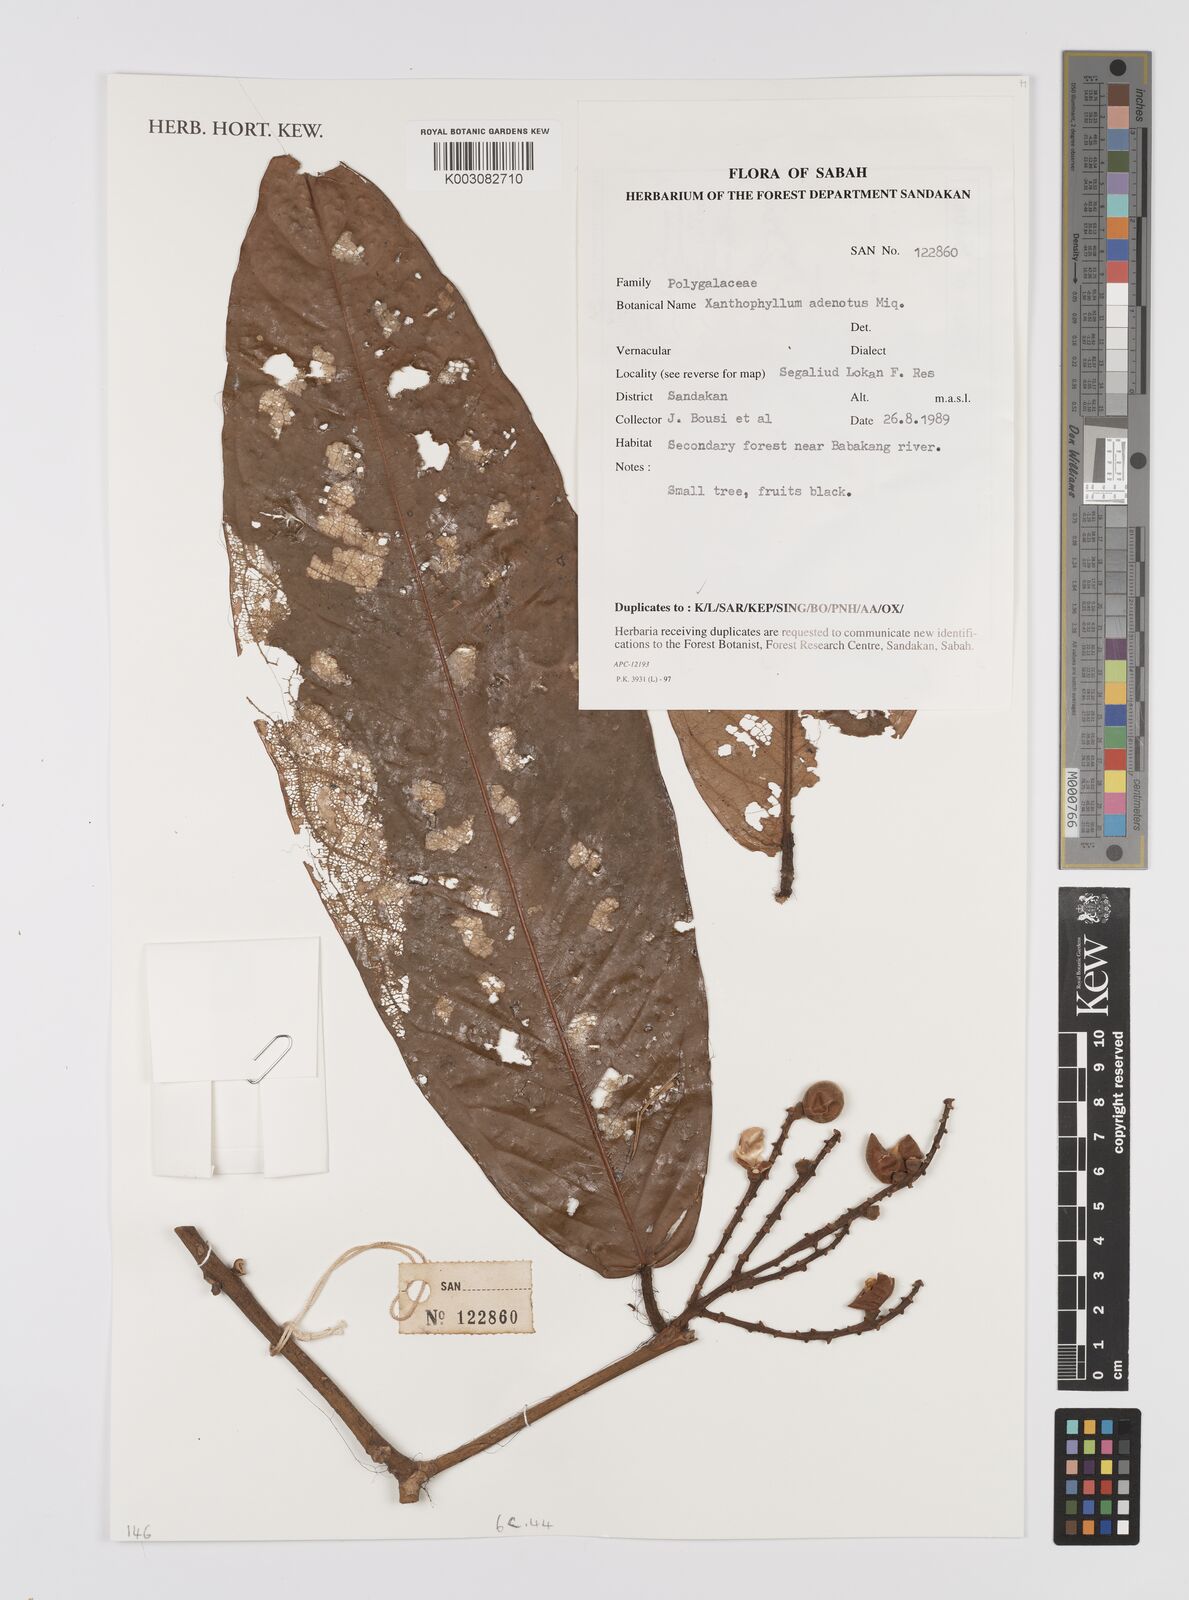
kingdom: Plantae
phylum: Tracheophyta
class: Magnoliopsida
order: Fabales
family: Polygalaceae
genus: Xanthophyllum
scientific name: Xanthophyllum adenotus
